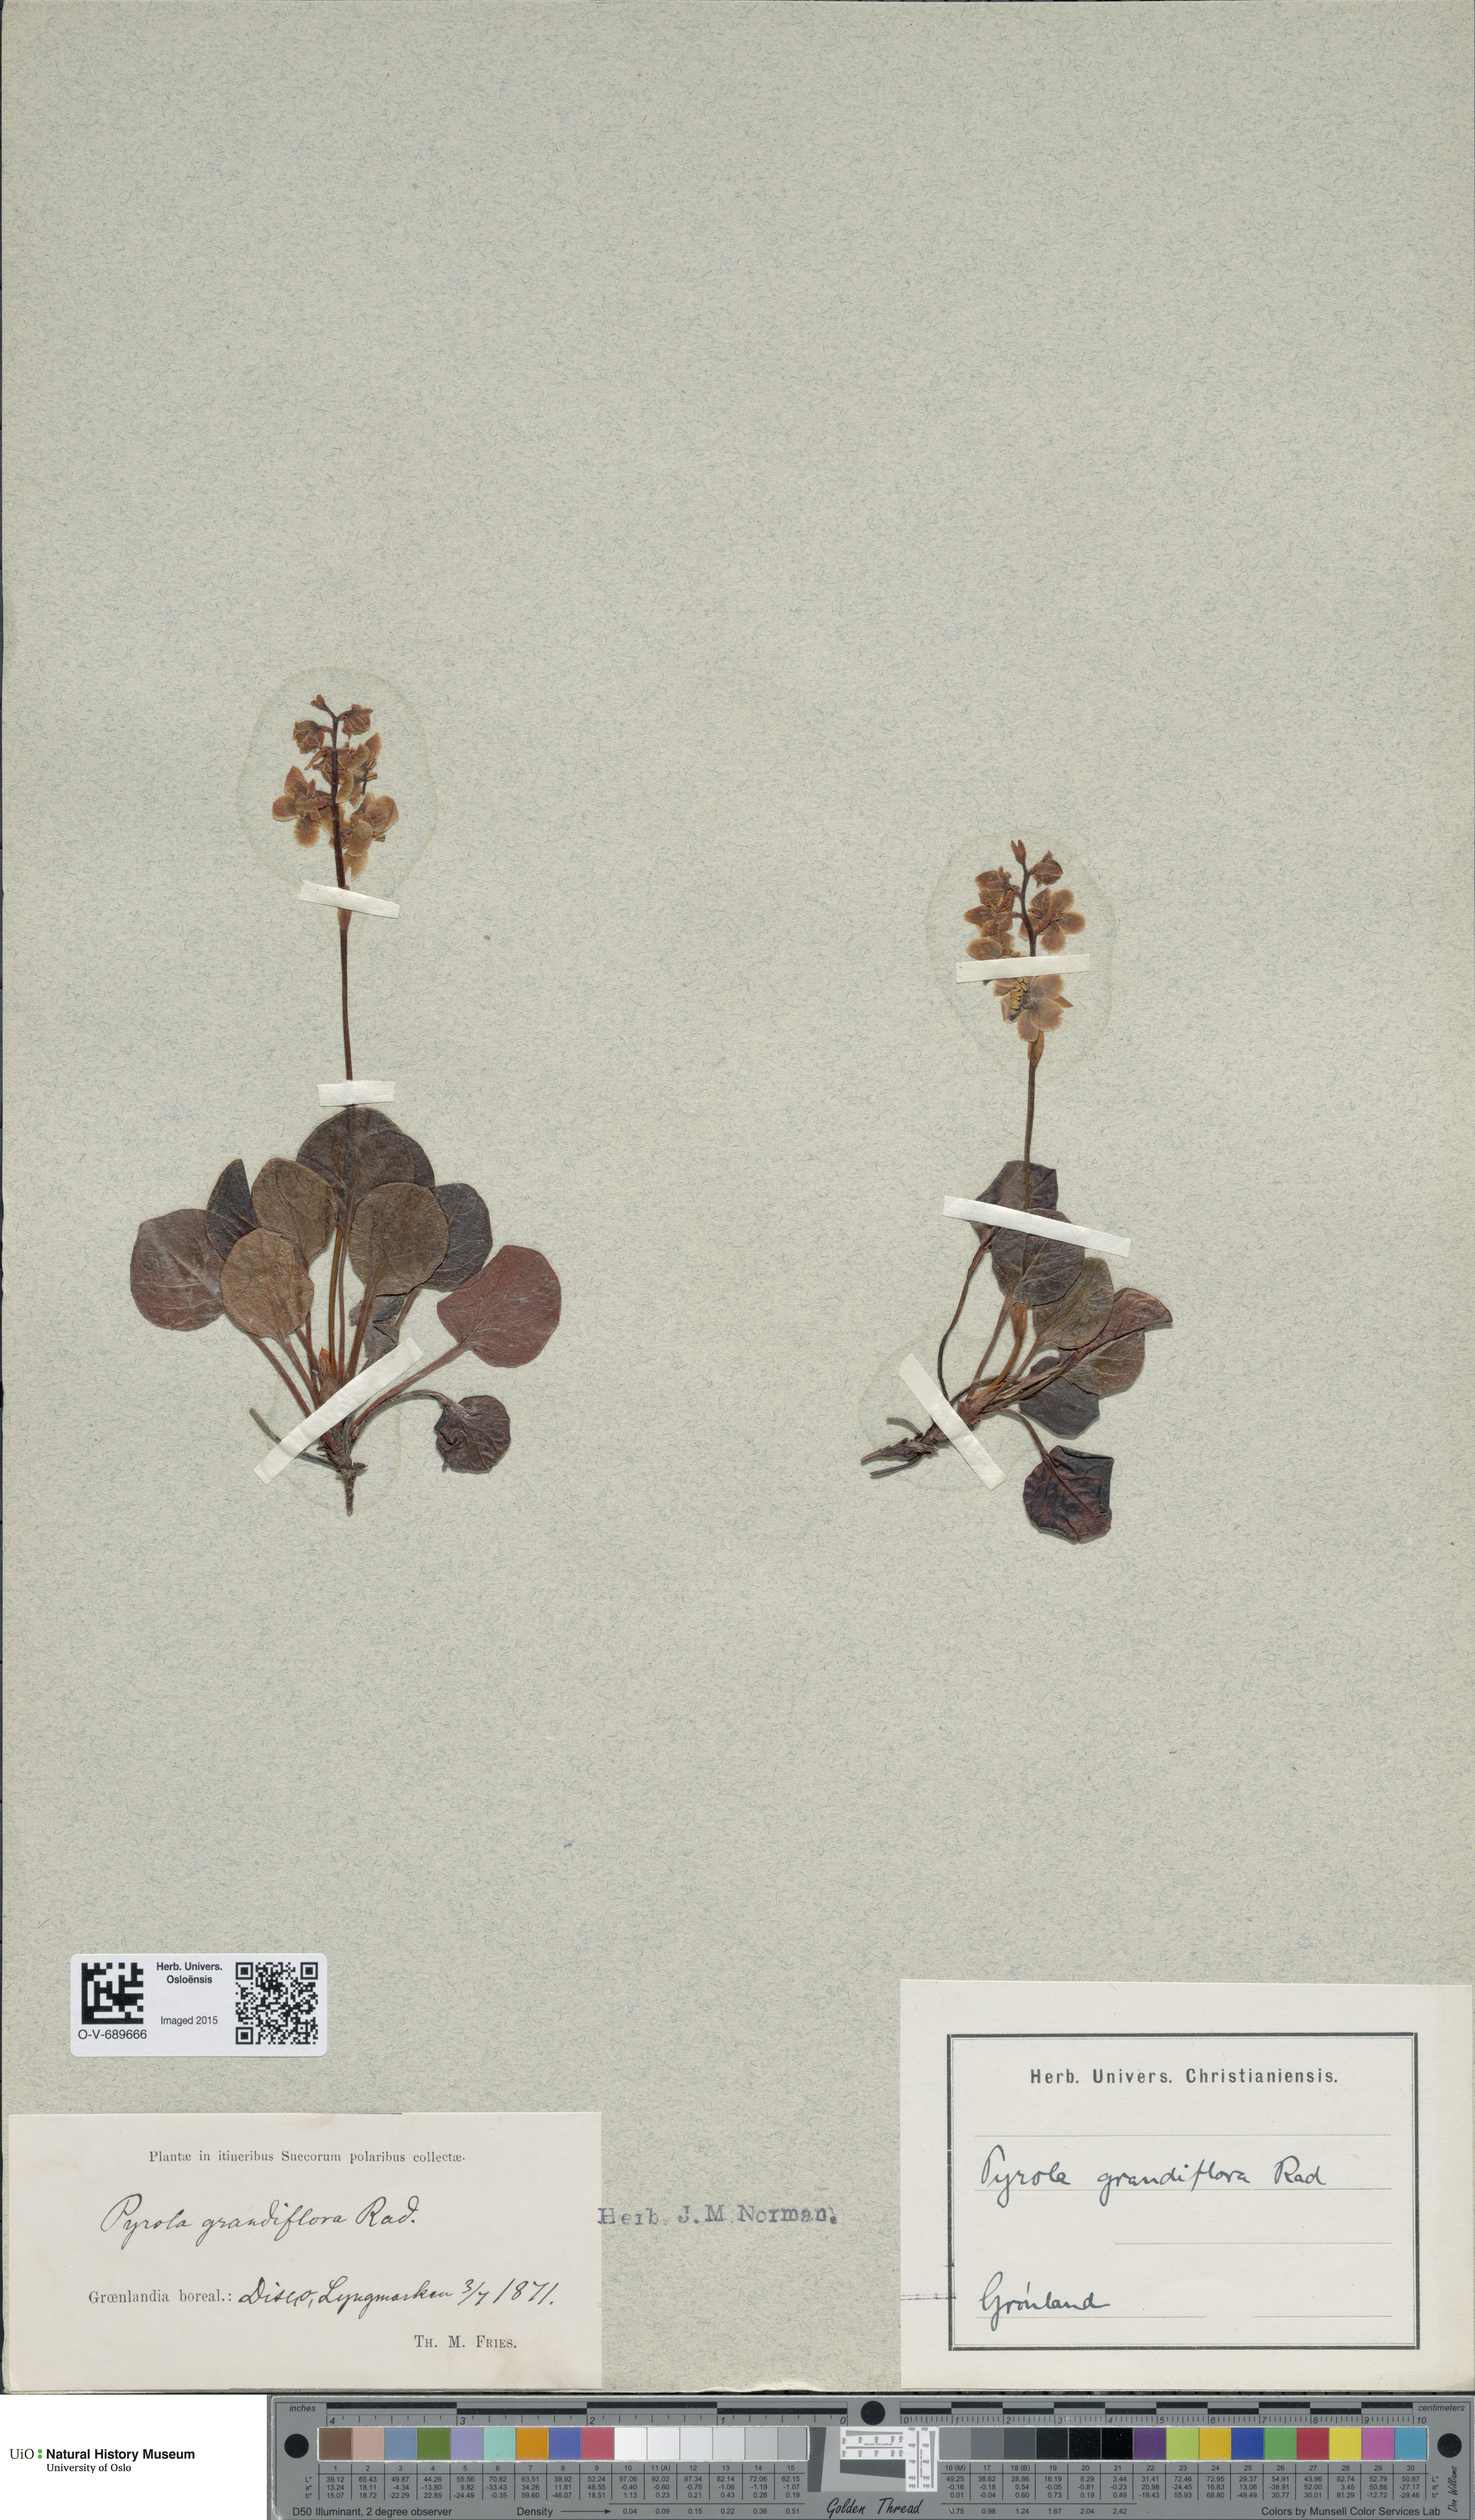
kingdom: Plantae
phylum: Tracheophyta
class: Magnoliopsida
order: Ericales
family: Ericaceae
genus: Pyrola
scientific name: Pyrola grandiflora
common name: Arctic pyrola
